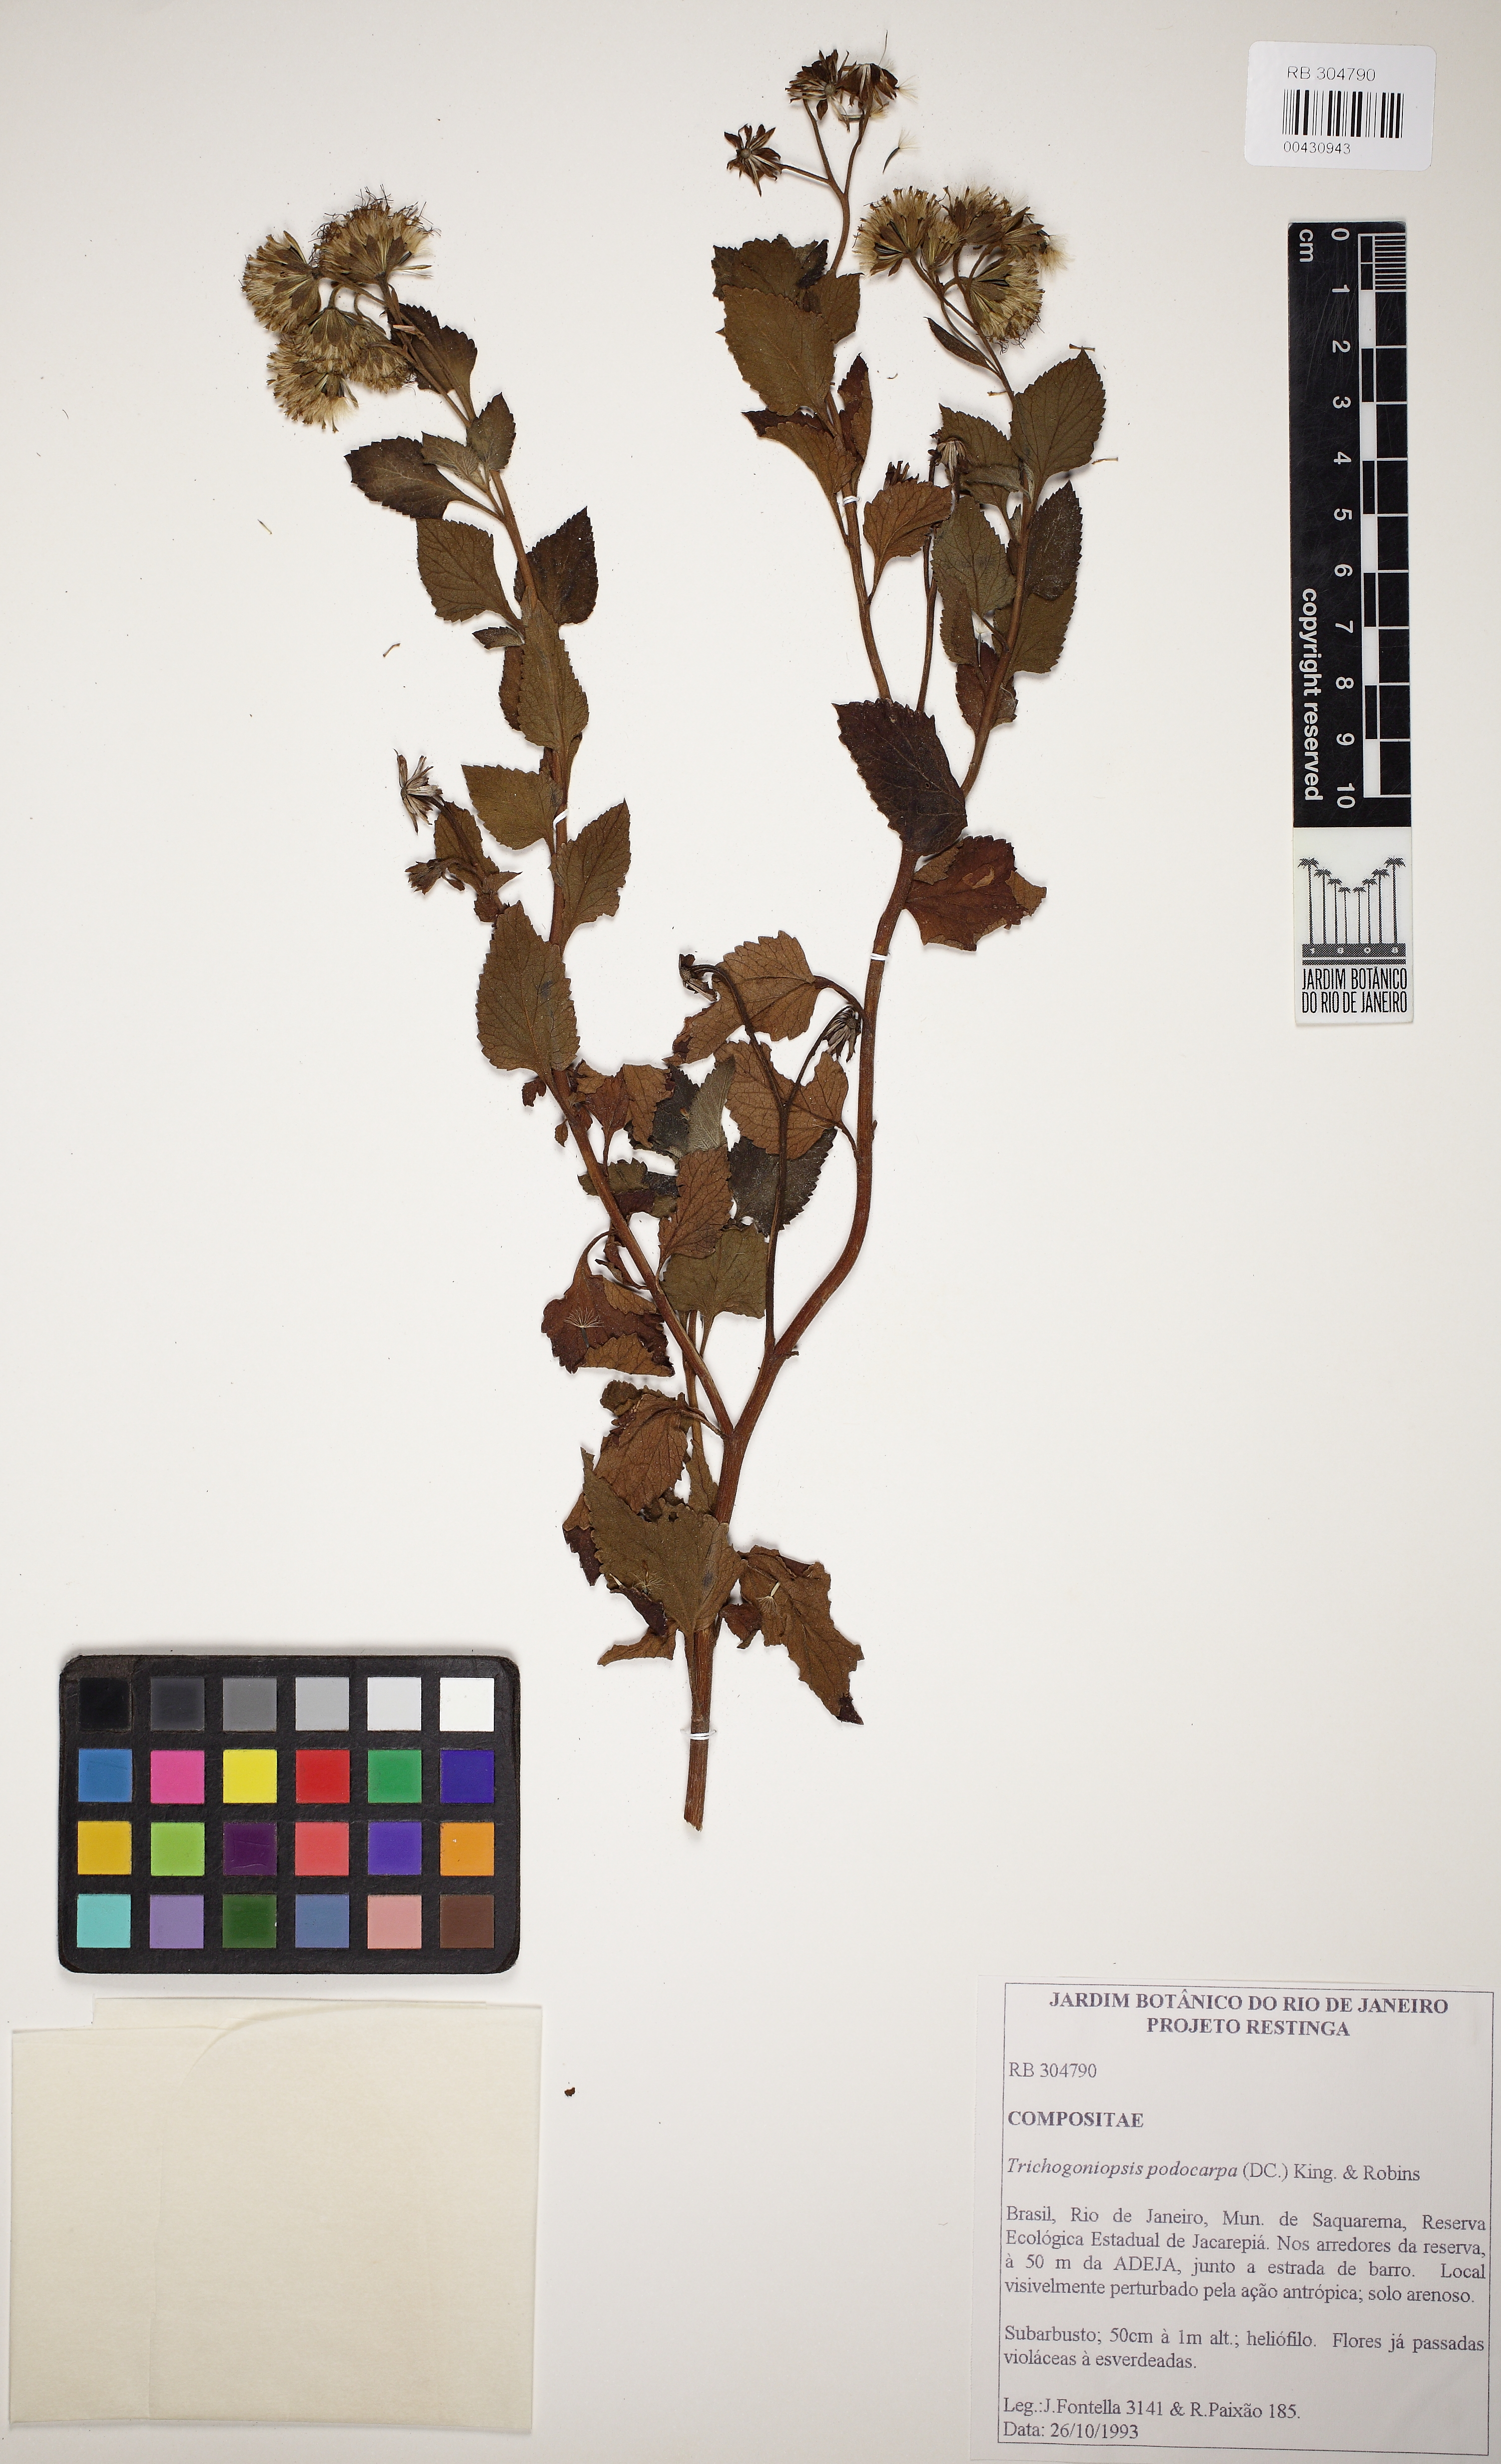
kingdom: Plantae
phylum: Tracheophyta
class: Magnoliopsida
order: Asterales
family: Asteraceae
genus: Trichogoniopsis
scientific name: Trichogoniopsis podocarpa
